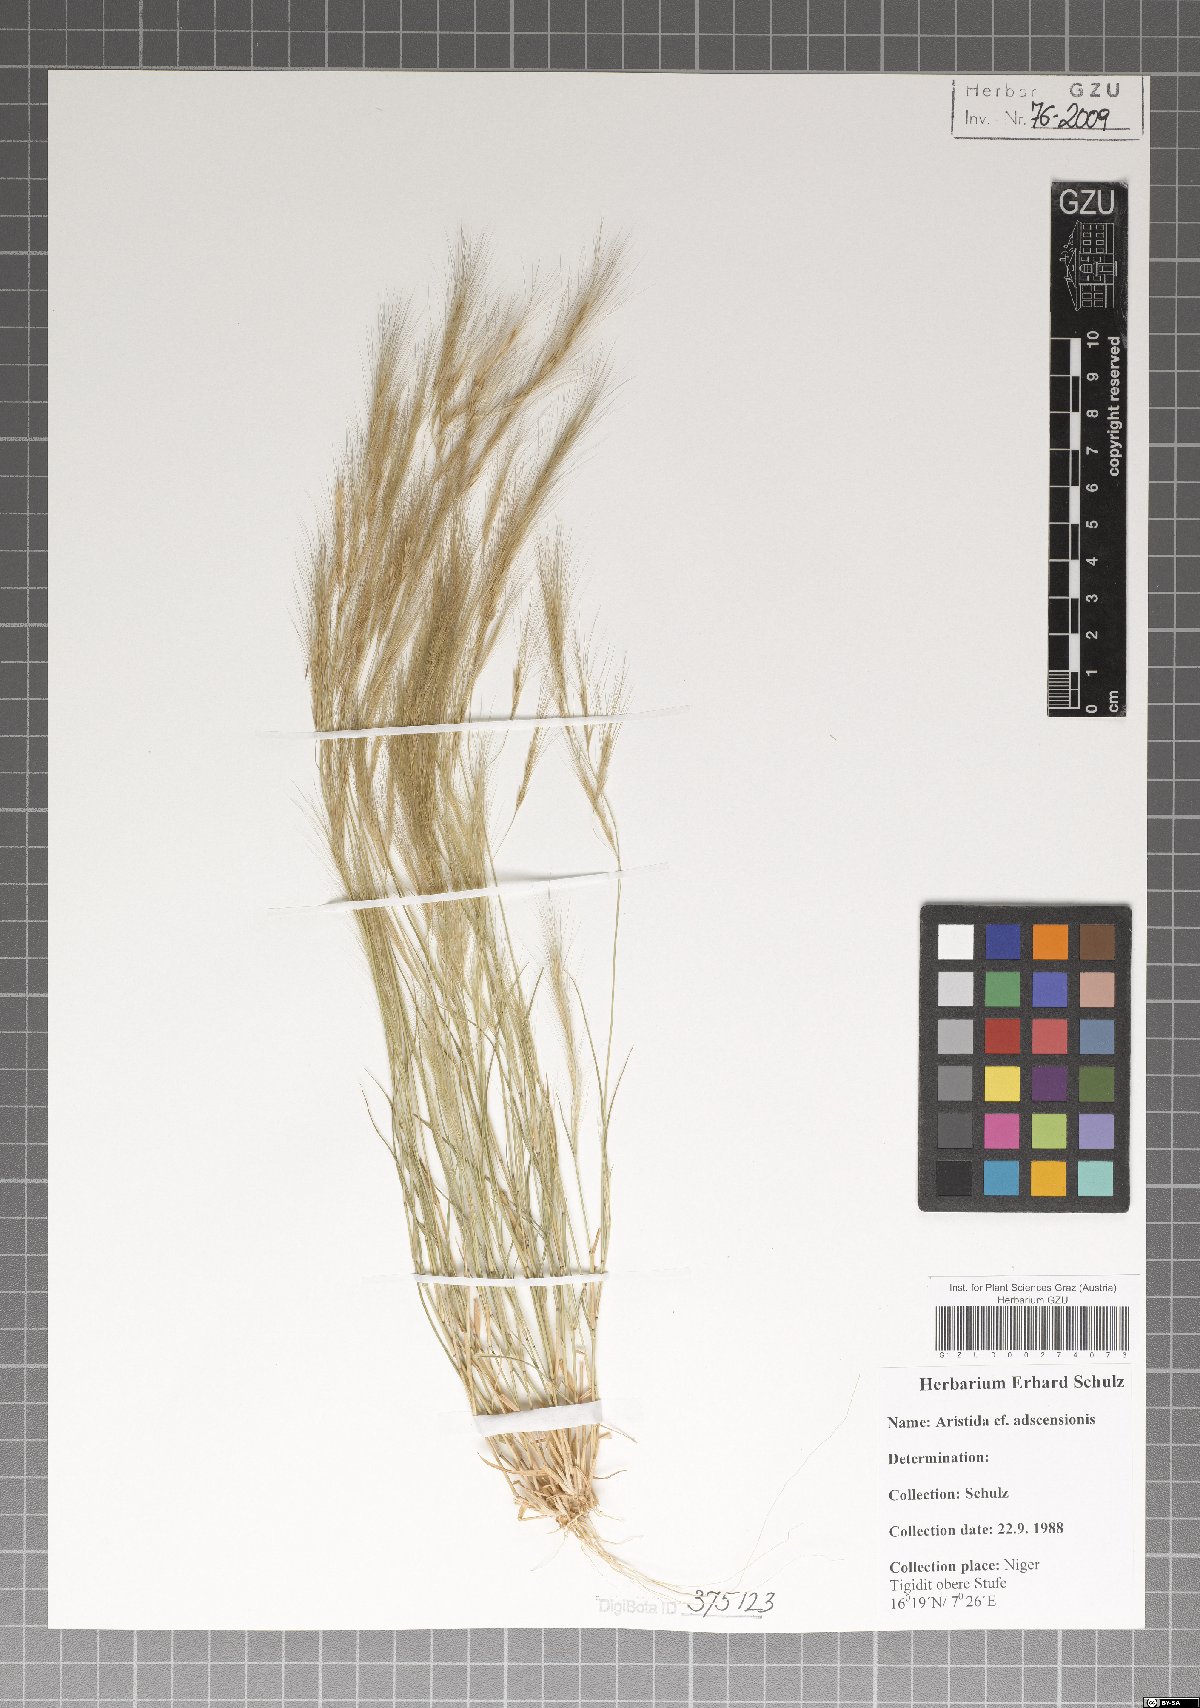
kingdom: Plantae
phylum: Tracheophyta
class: Liliopsida
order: Poales
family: Poaceae
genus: Aristida
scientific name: Aristida adscensionis
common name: Sixweeks threeawn
